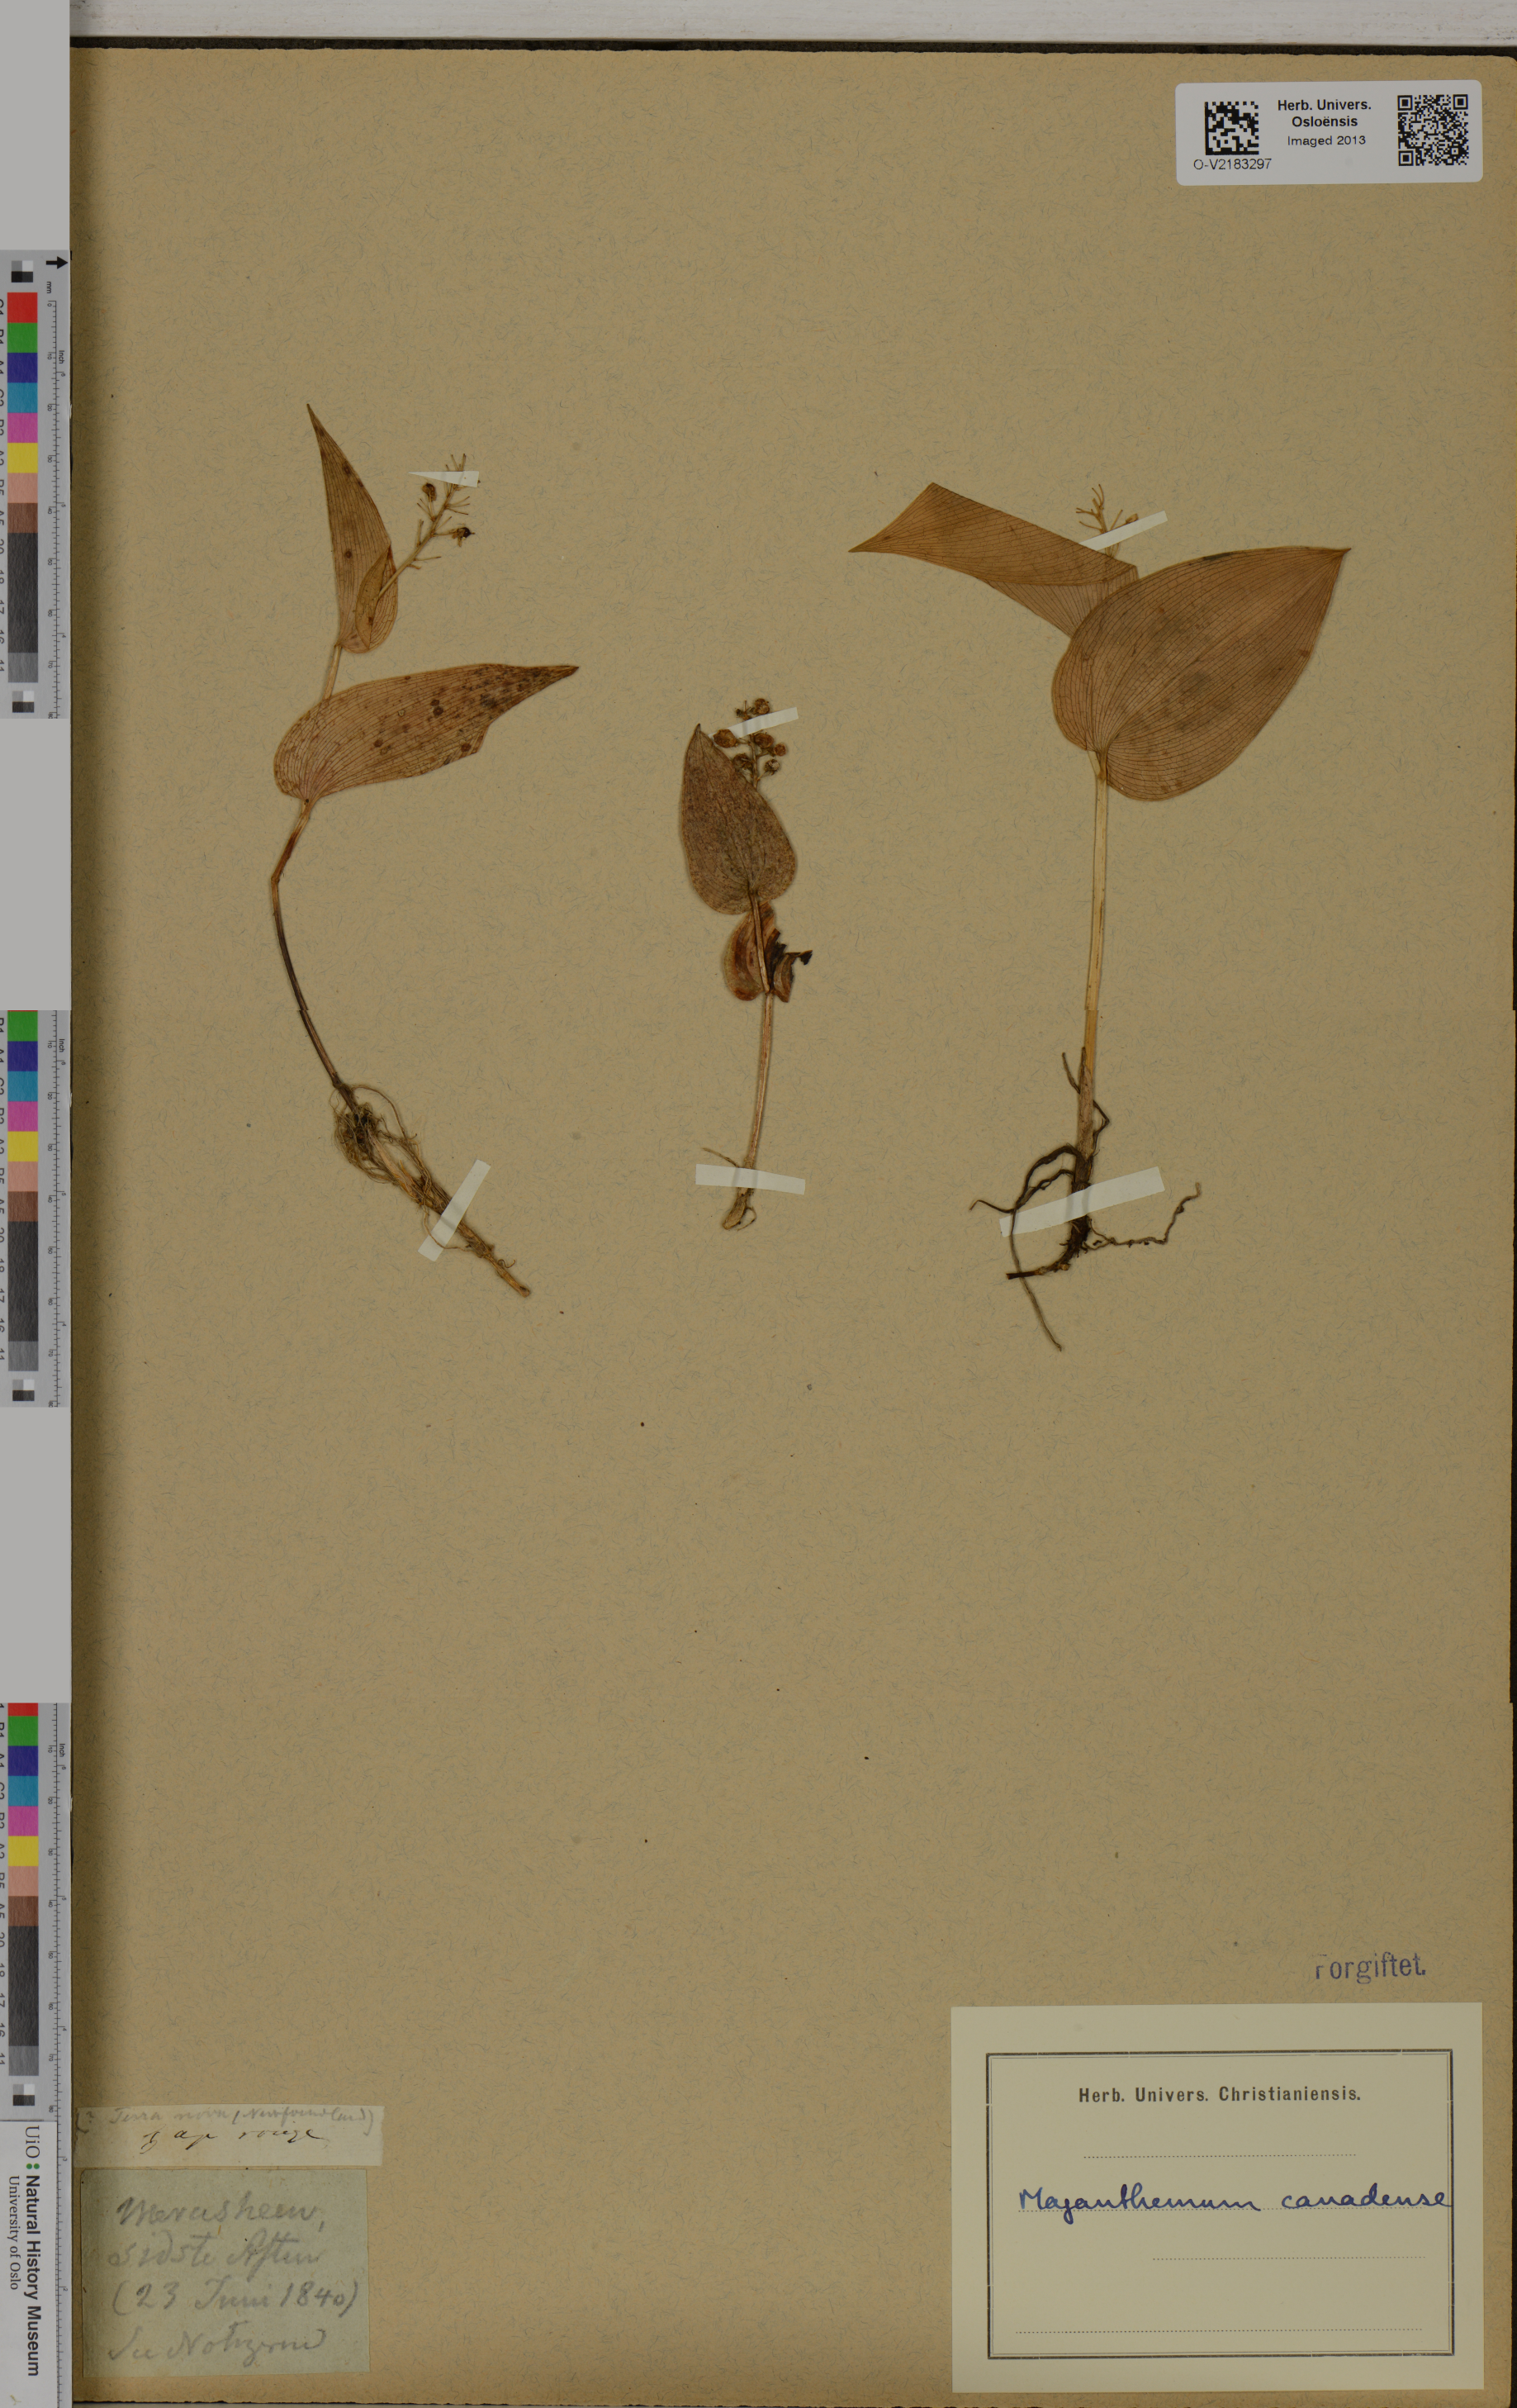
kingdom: Plantae
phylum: Tracheophyta
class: Liliopsida
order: Asparagales
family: Asparagaceae
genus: Maianthemum
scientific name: Maianthemum canadense
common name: False lily-of-the-valley
